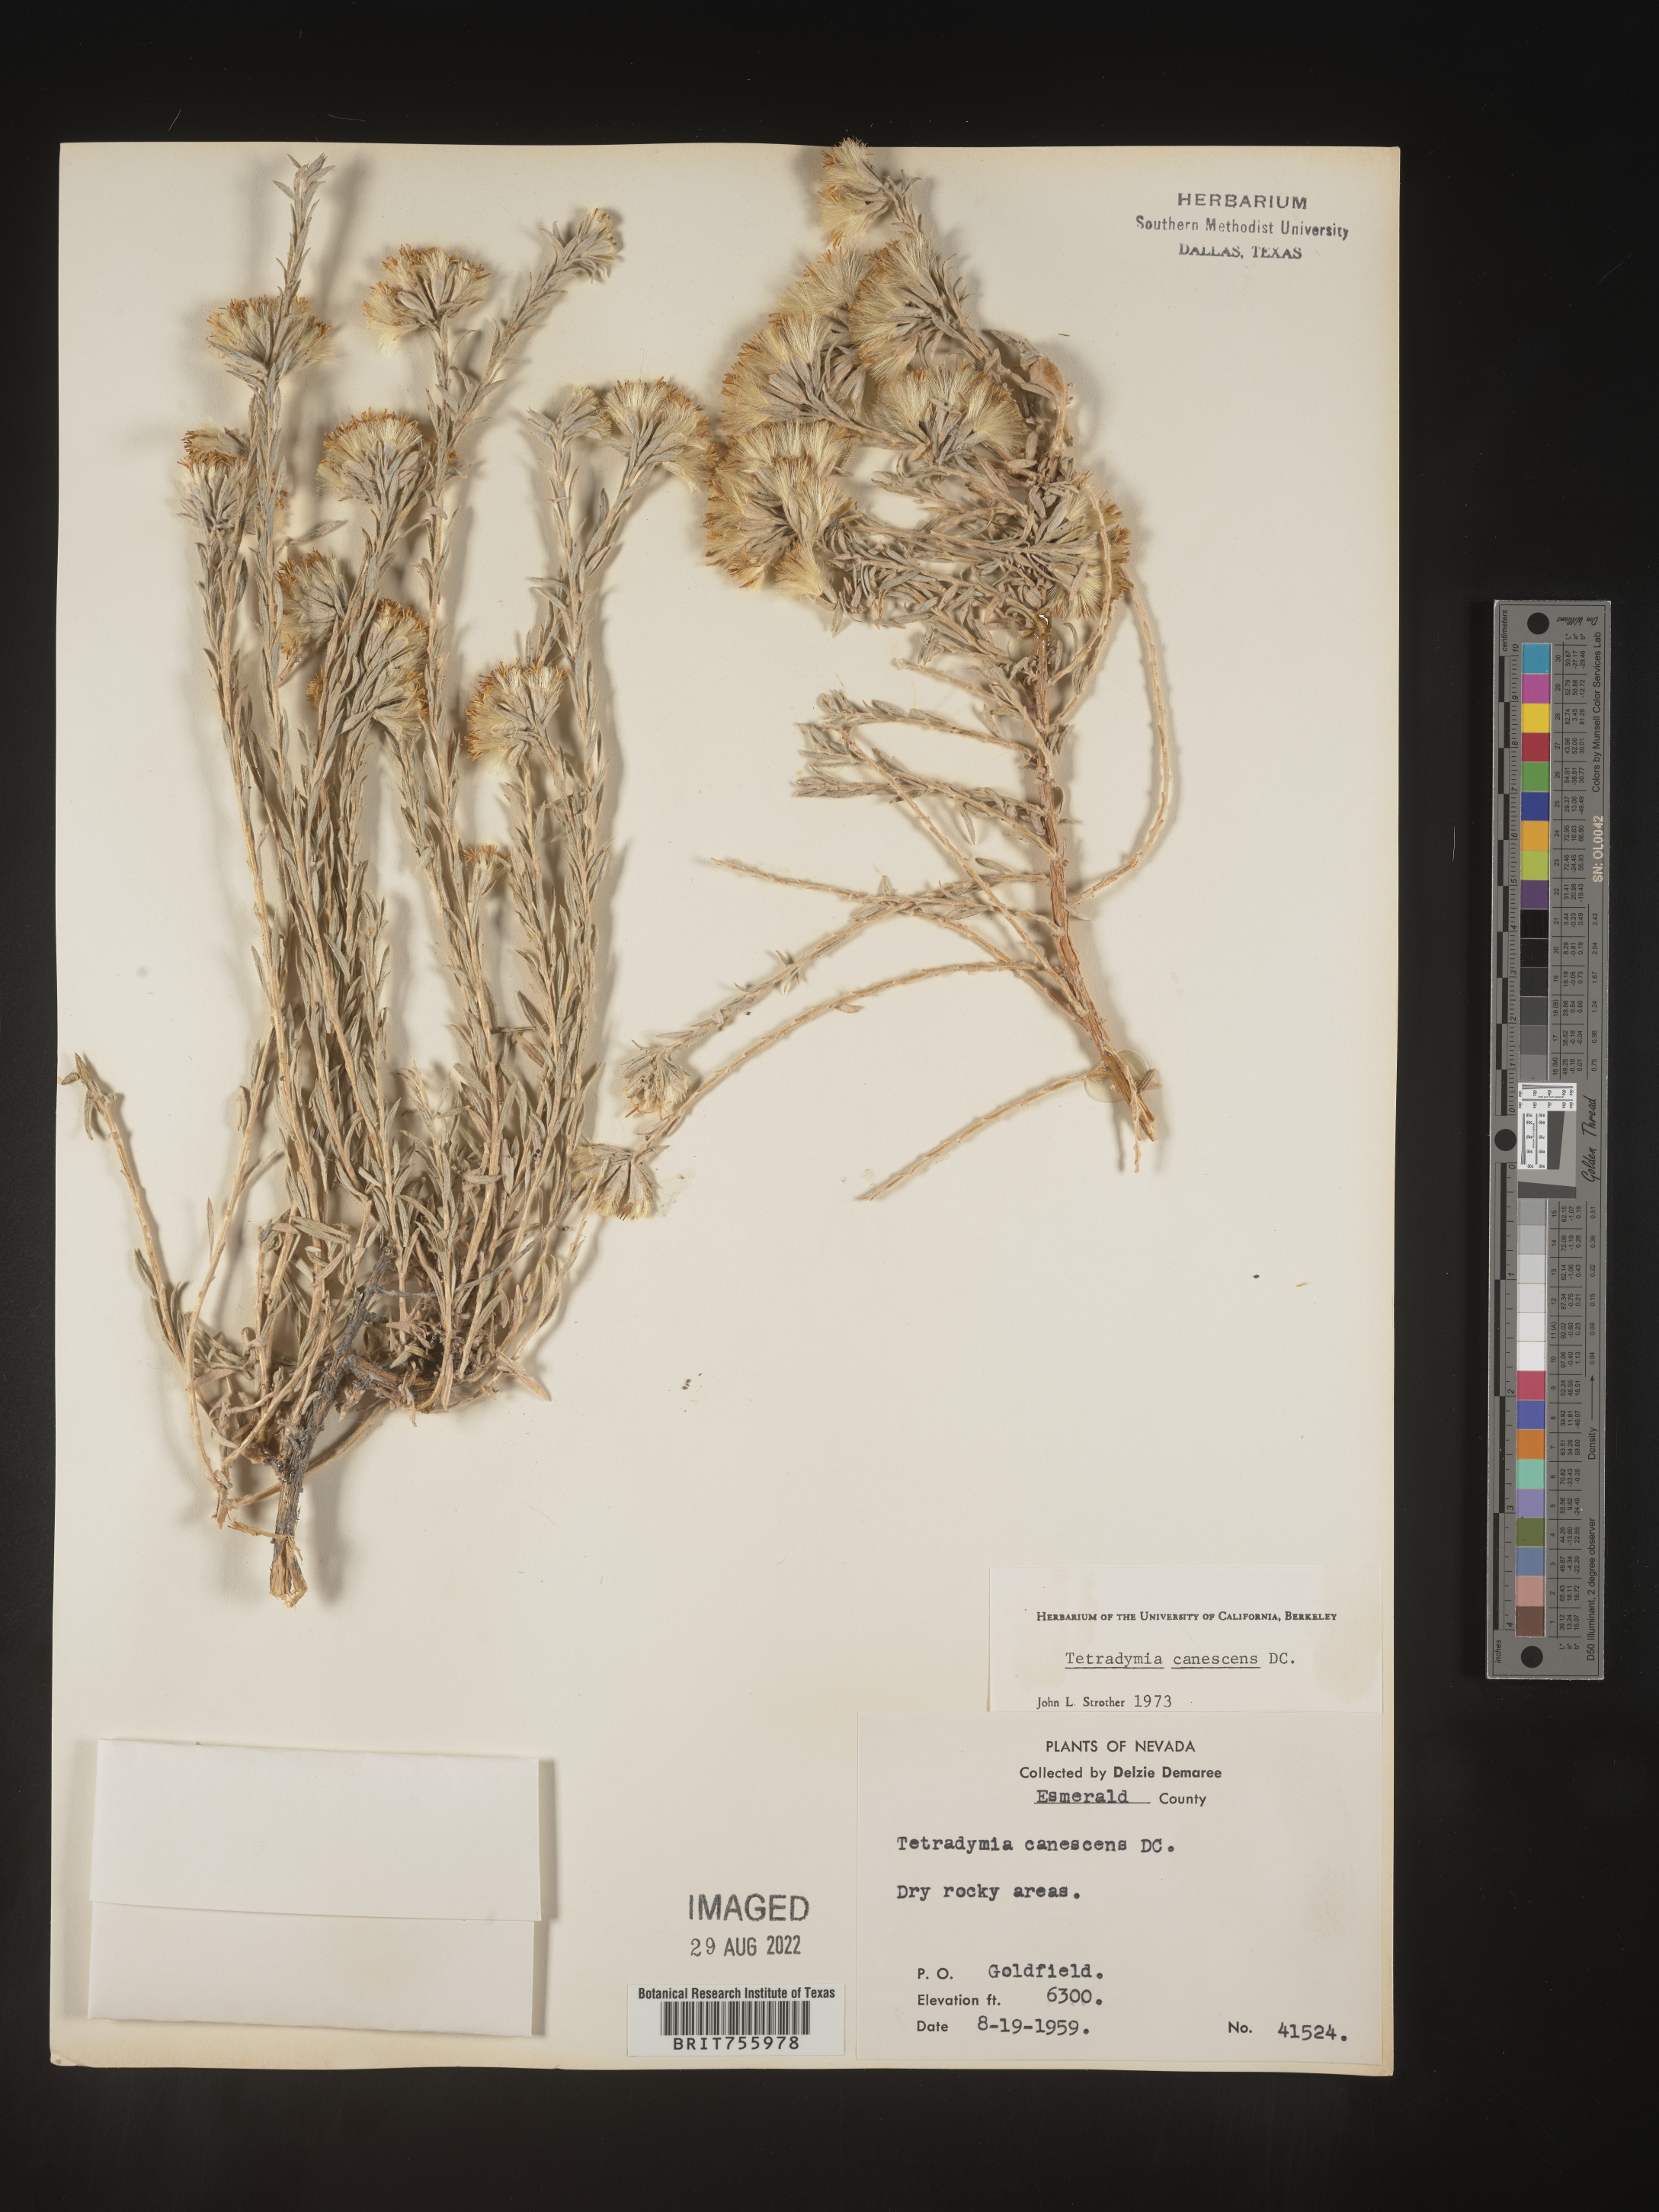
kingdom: Plantae
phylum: Tracheophyta
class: Magnoliopsida
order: Asterales
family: Asteraceae
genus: Tetradymia
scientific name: Tetradymia canescens
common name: Spineless horsebrush
